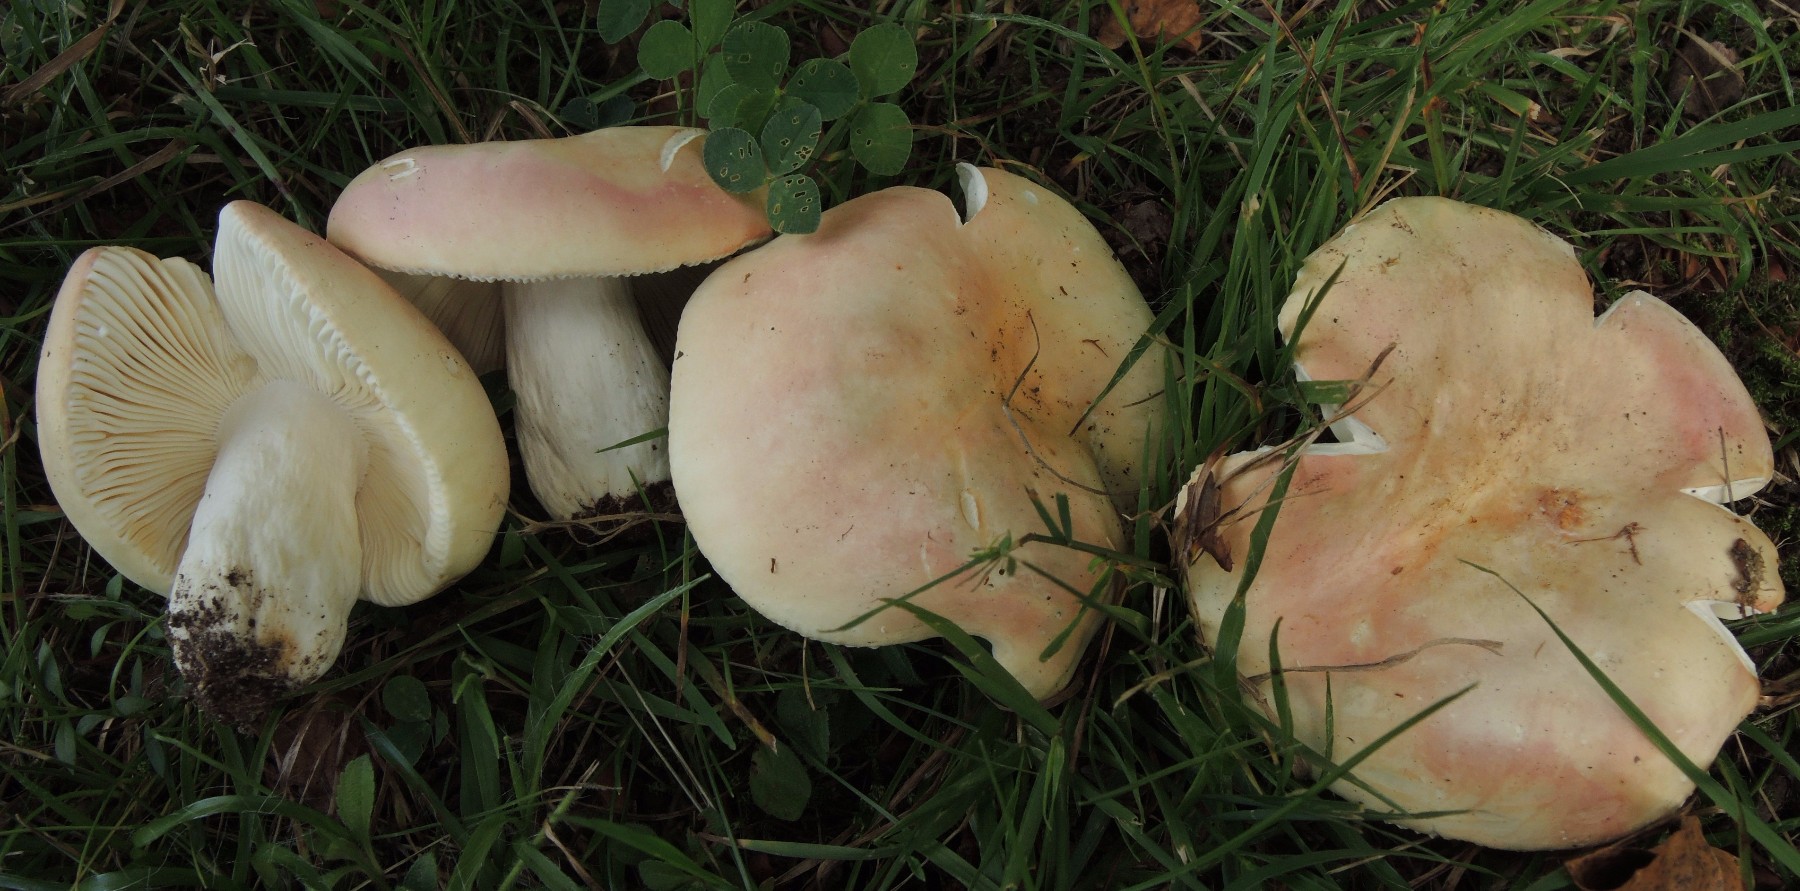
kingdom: Fungi
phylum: Basidiomycota
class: Agaricomycetes
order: Russulales
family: Russulaceae
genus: Russula
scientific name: Russula rosea
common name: fastkødet skørhat
